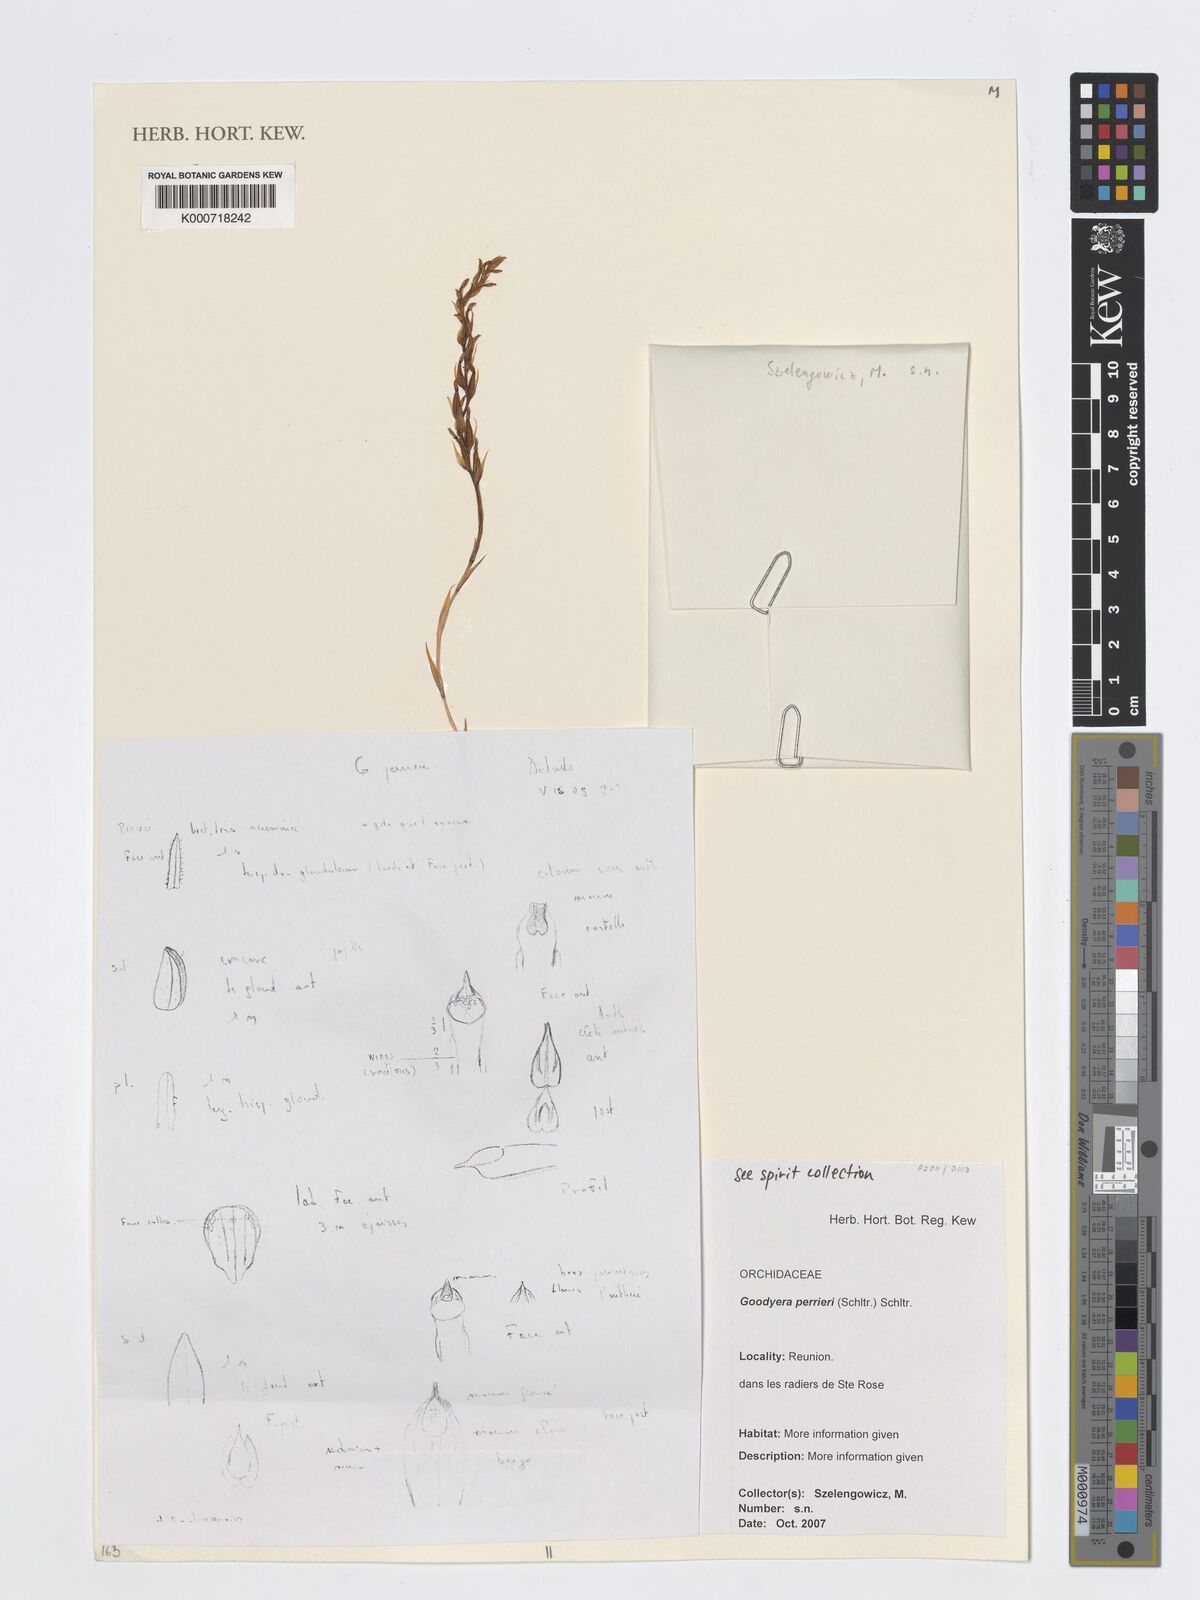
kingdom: Plantae
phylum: Tracheophyta
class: Liliopsida
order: Asparagales
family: Orchidaceae
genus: Goodyera
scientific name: Goodyera perrieri
